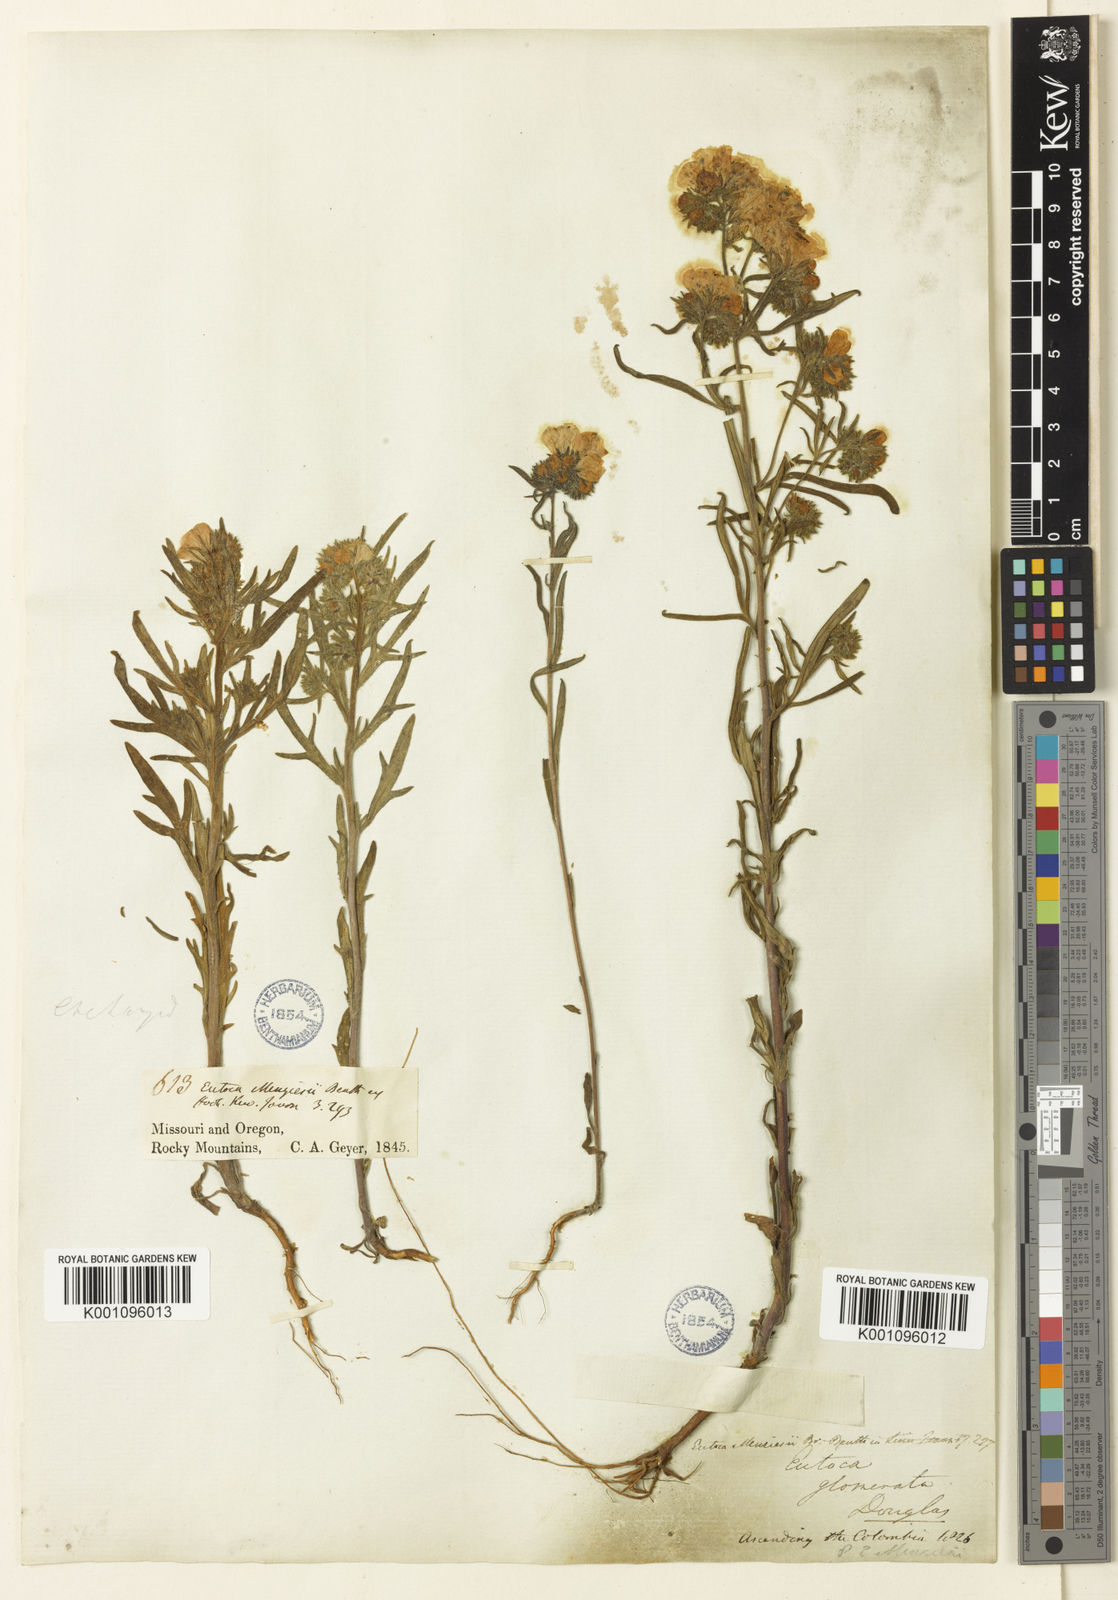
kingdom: Plantae
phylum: Tracheophyta
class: Magnoliopsida
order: Boraginales
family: Hydrophyllaceae
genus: Phacelia
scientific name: Phacelia linearis
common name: Linear-leaved phacelia
